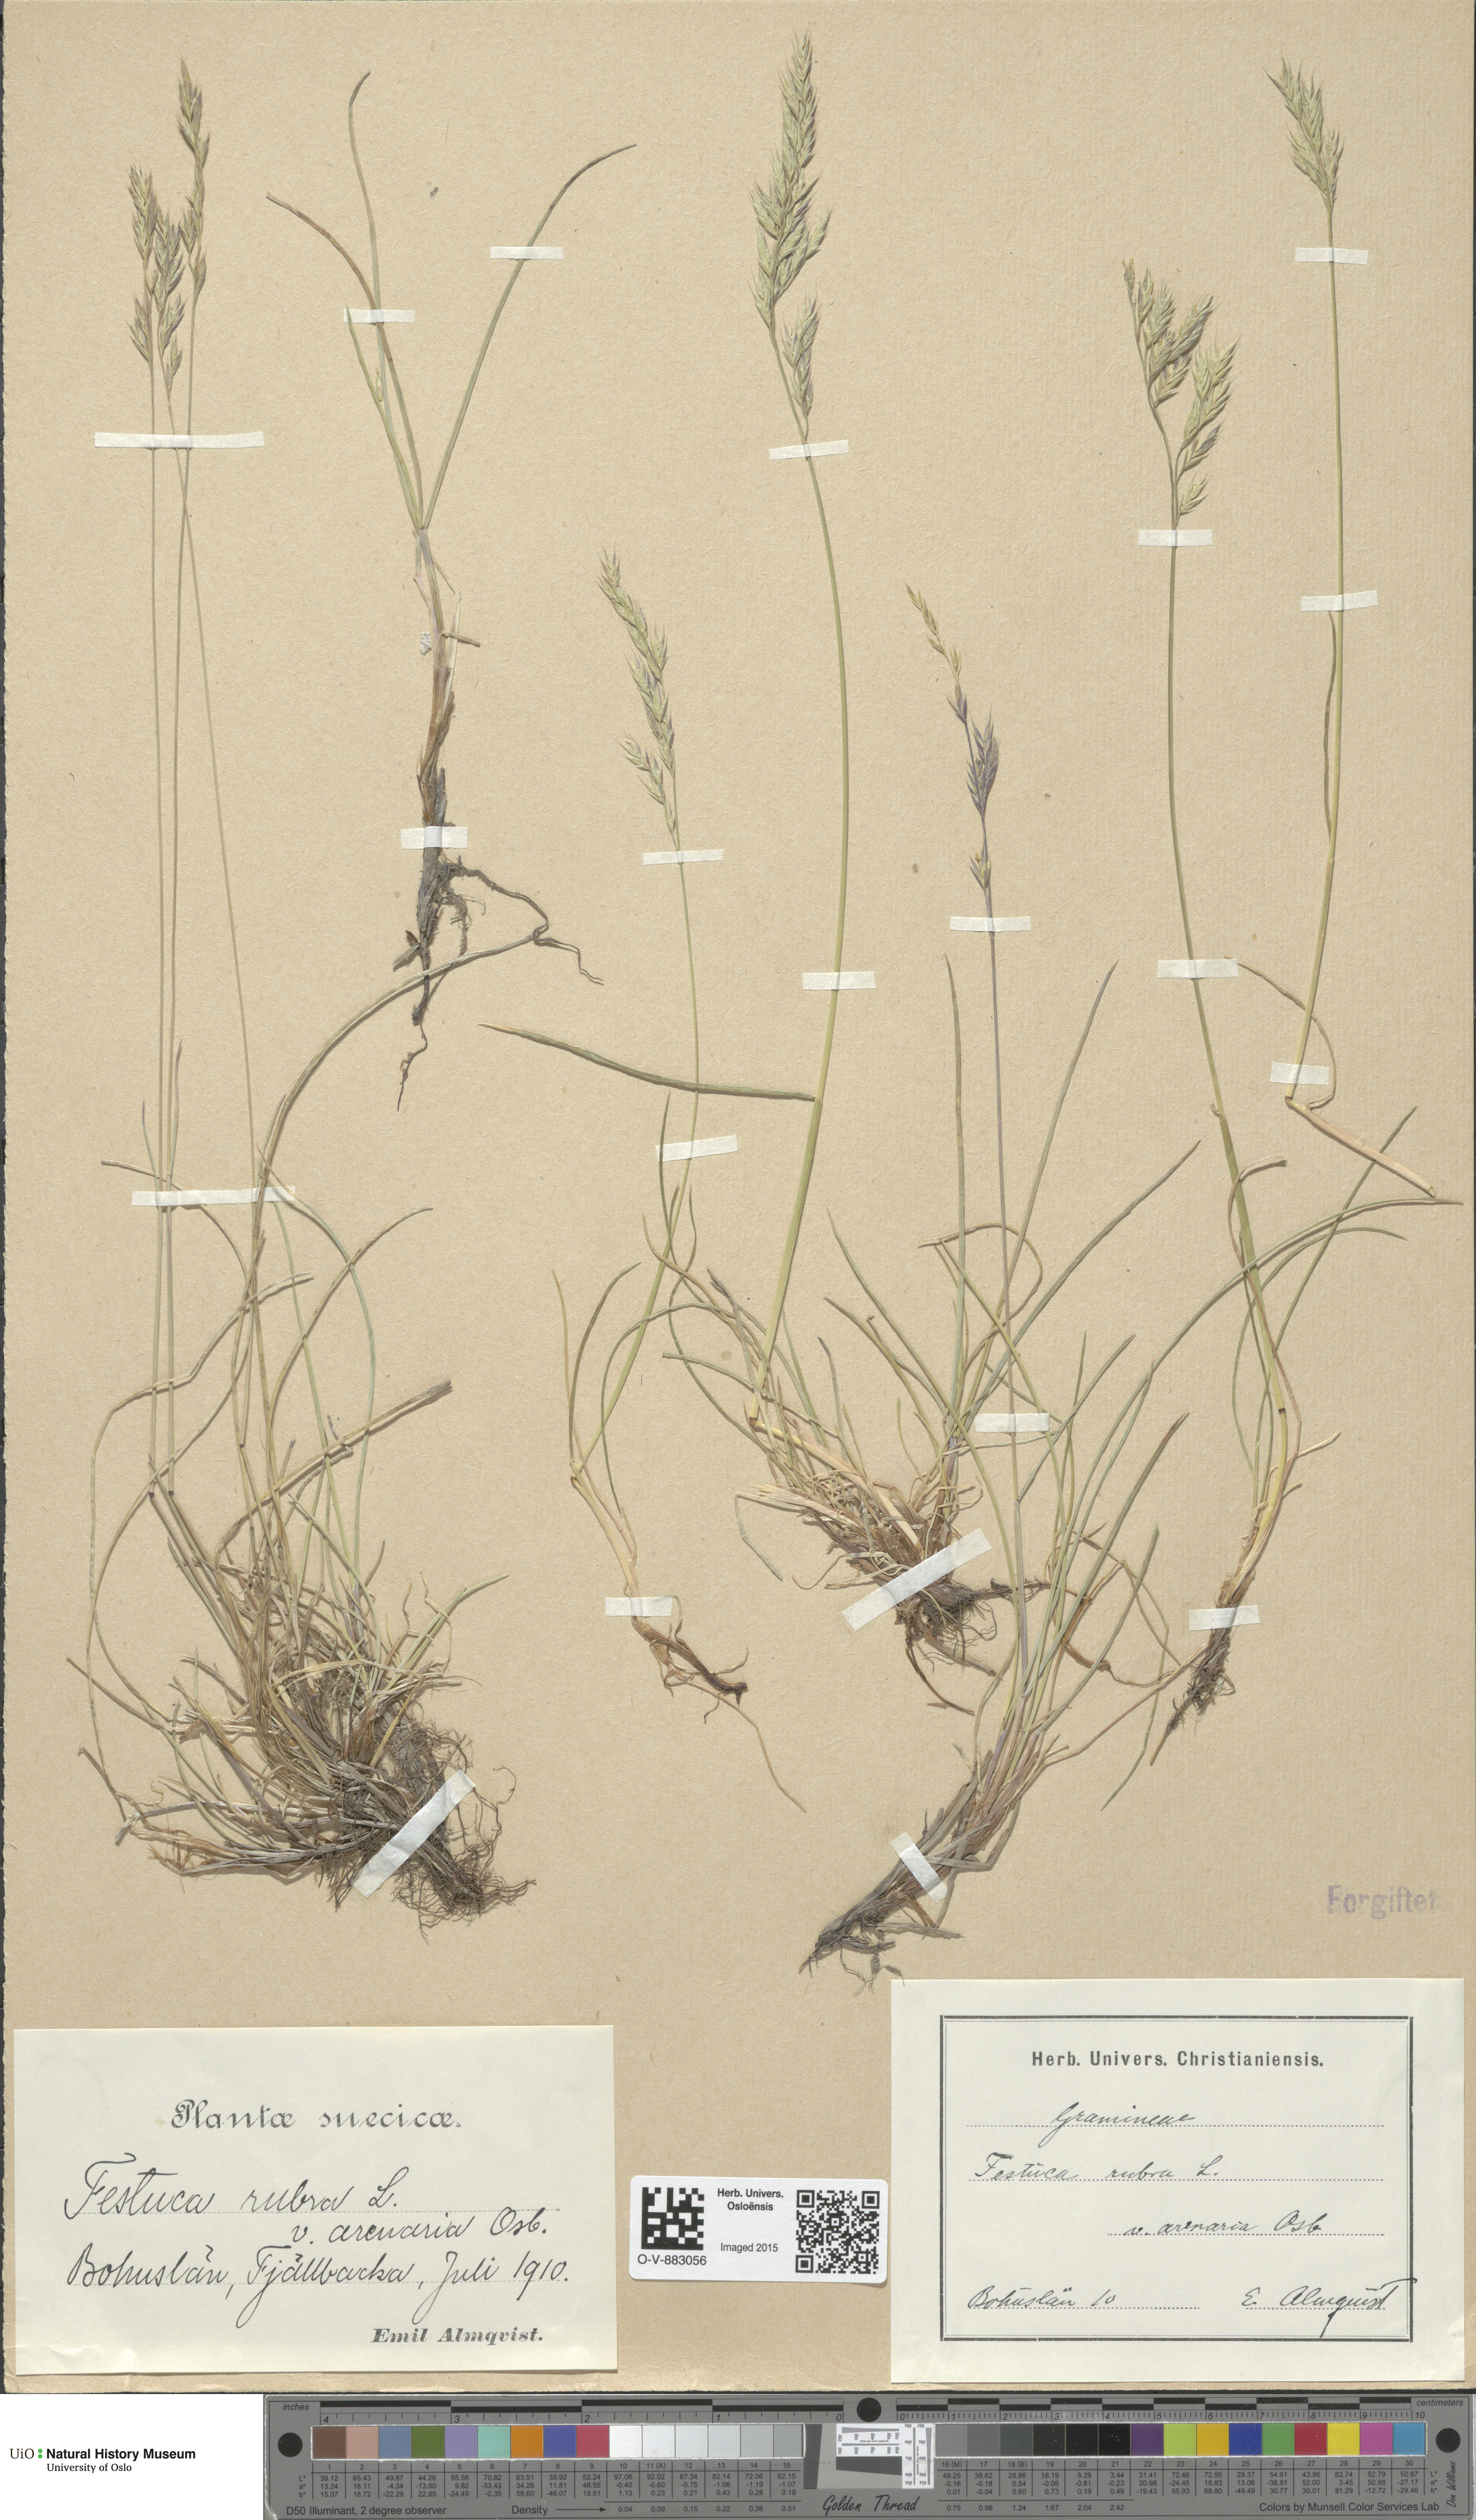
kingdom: Plantae
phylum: Tracheophyta
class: Liliopsida
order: Poales
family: Poaceae
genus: Festuca
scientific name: Festuca rubra
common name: Red fescue
